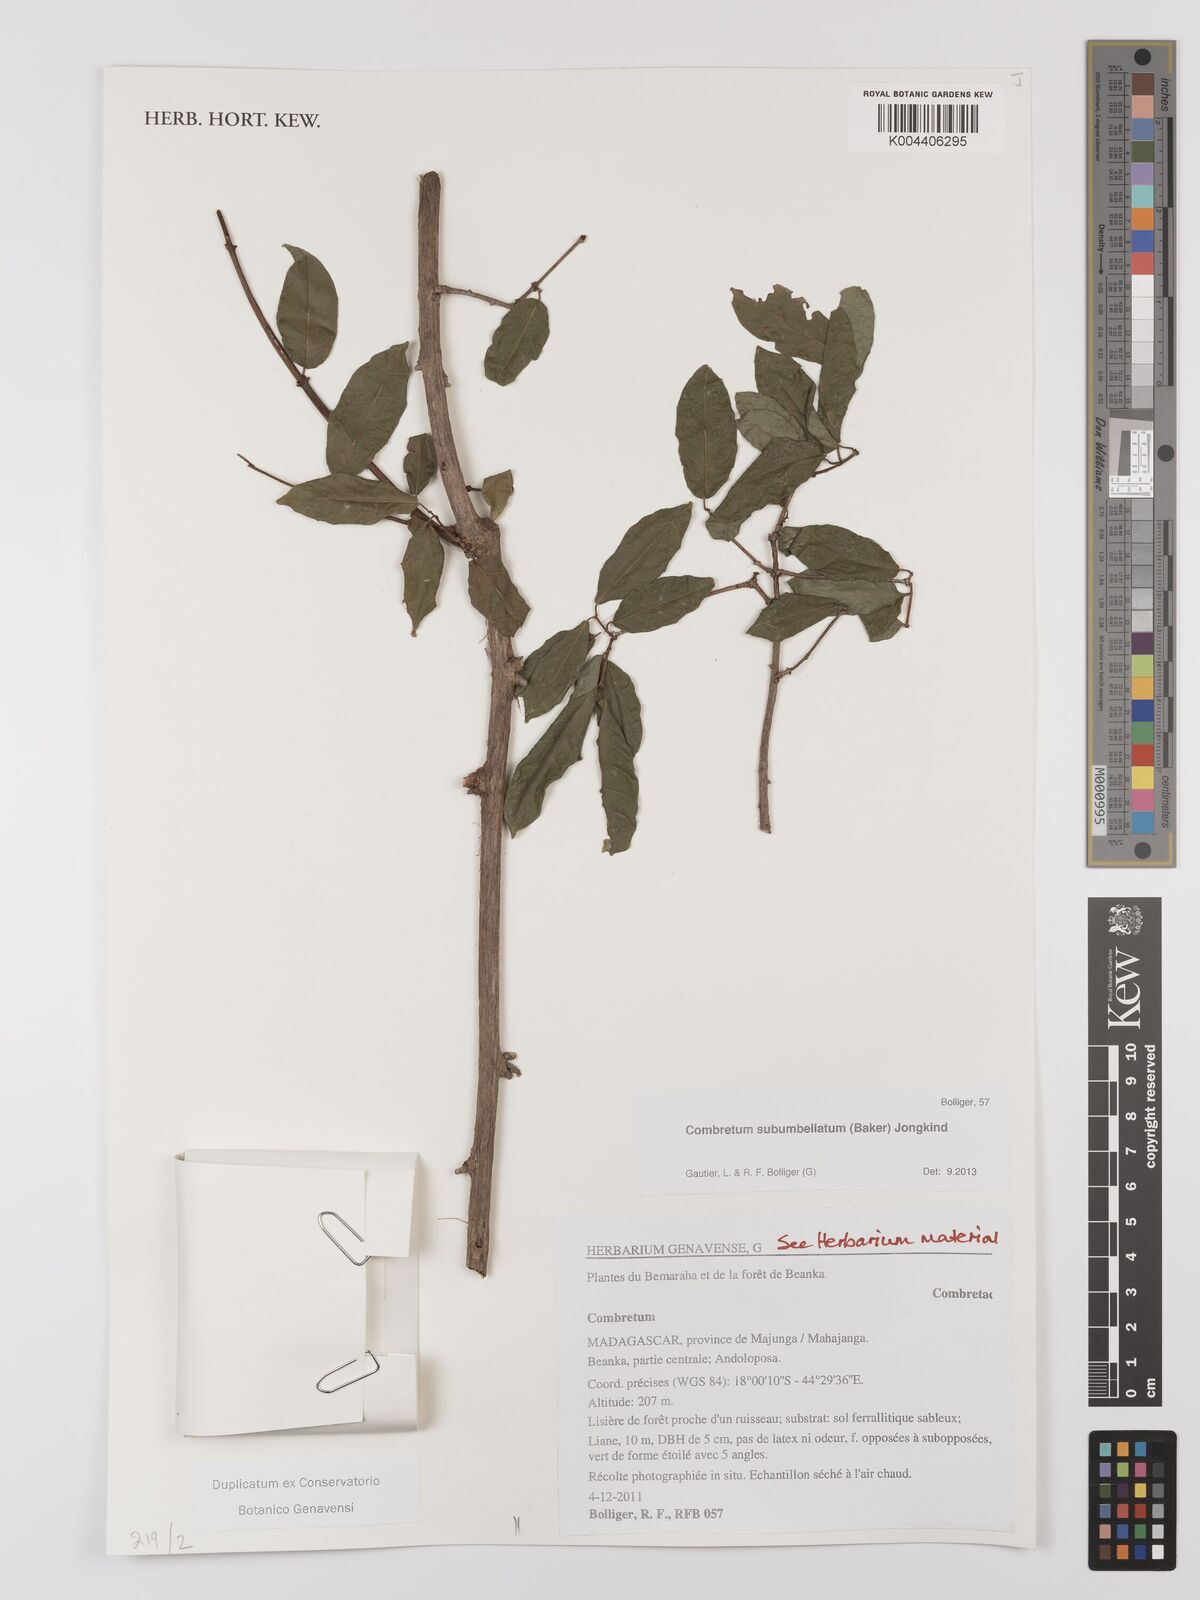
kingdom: Plantae
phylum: Tracheophyta
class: Magnoliopsida
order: Myrtales
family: Combretaceae
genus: Combretum
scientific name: Combretum subumbellatum
